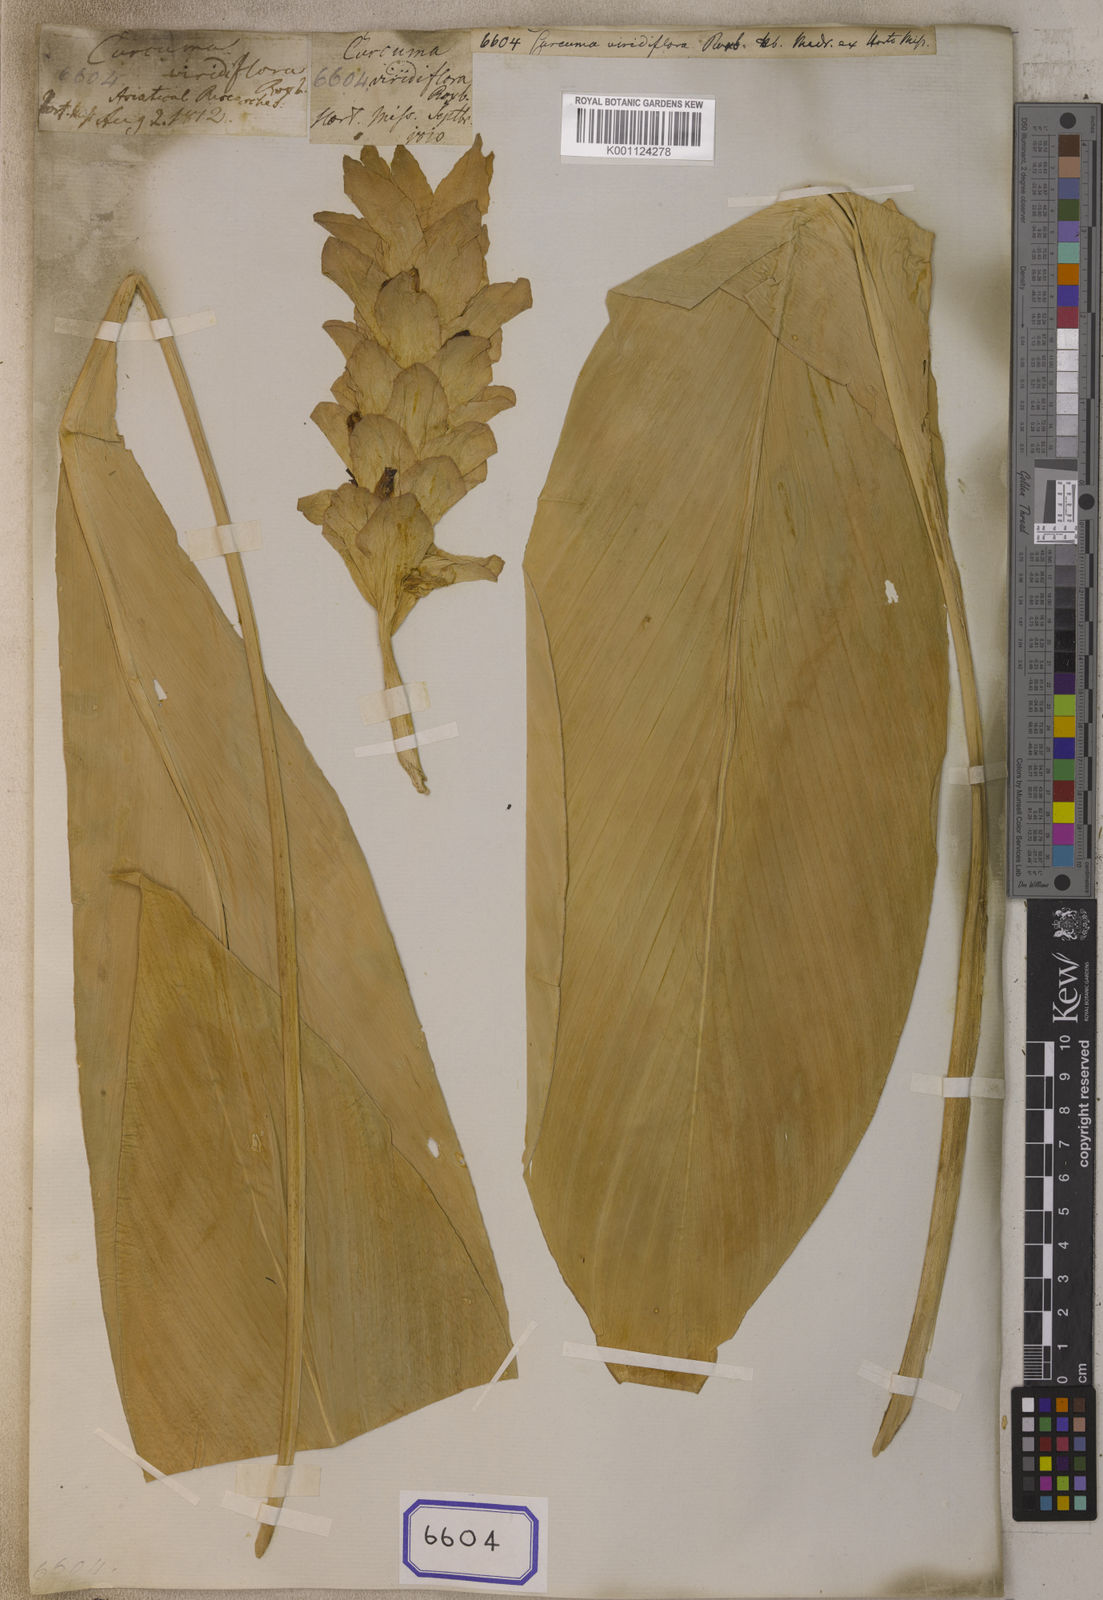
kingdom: Plantae
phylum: Tracheophyta
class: Liliopsida
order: Zingiberales
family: Zingiberaceae
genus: Curcuma
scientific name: Curcuma viridiflora
